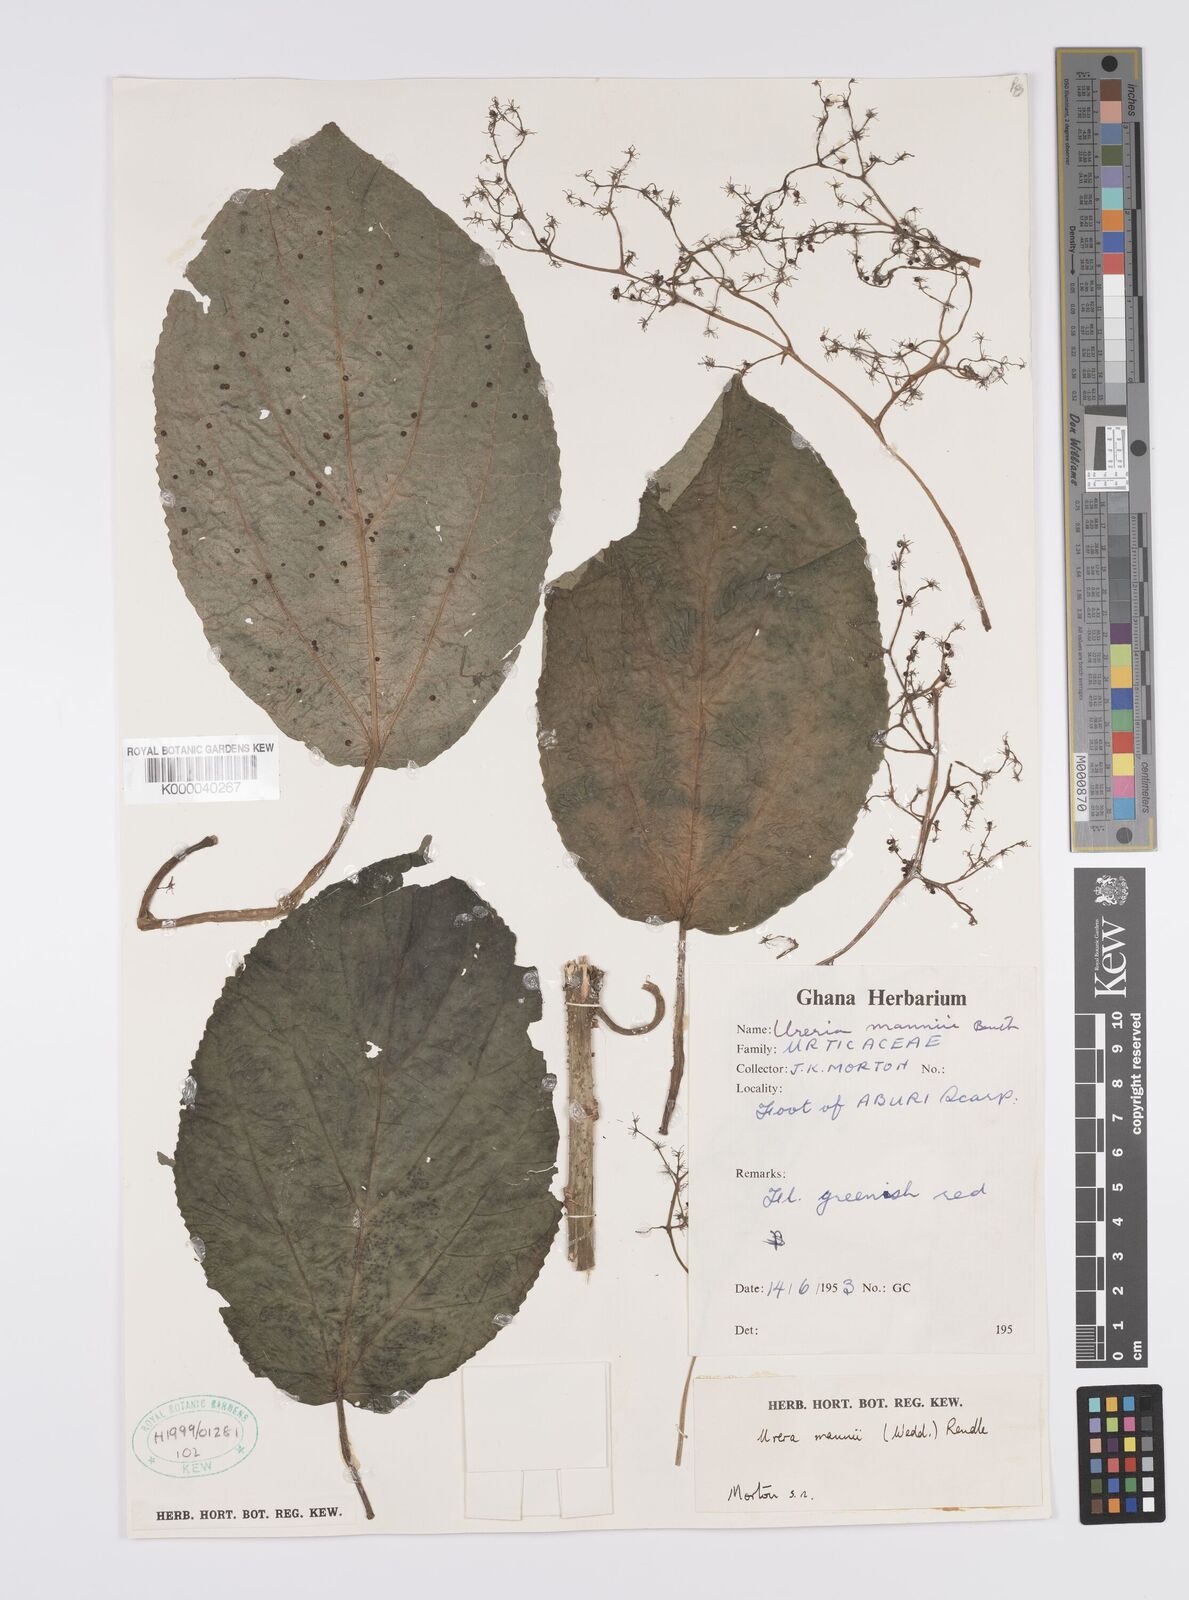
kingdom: Plantae
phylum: Tracheophyta
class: Magnoliopsida
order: Rosales
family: Urticaceae
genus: Scepocarpus
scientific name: Scepocarpus mannii
